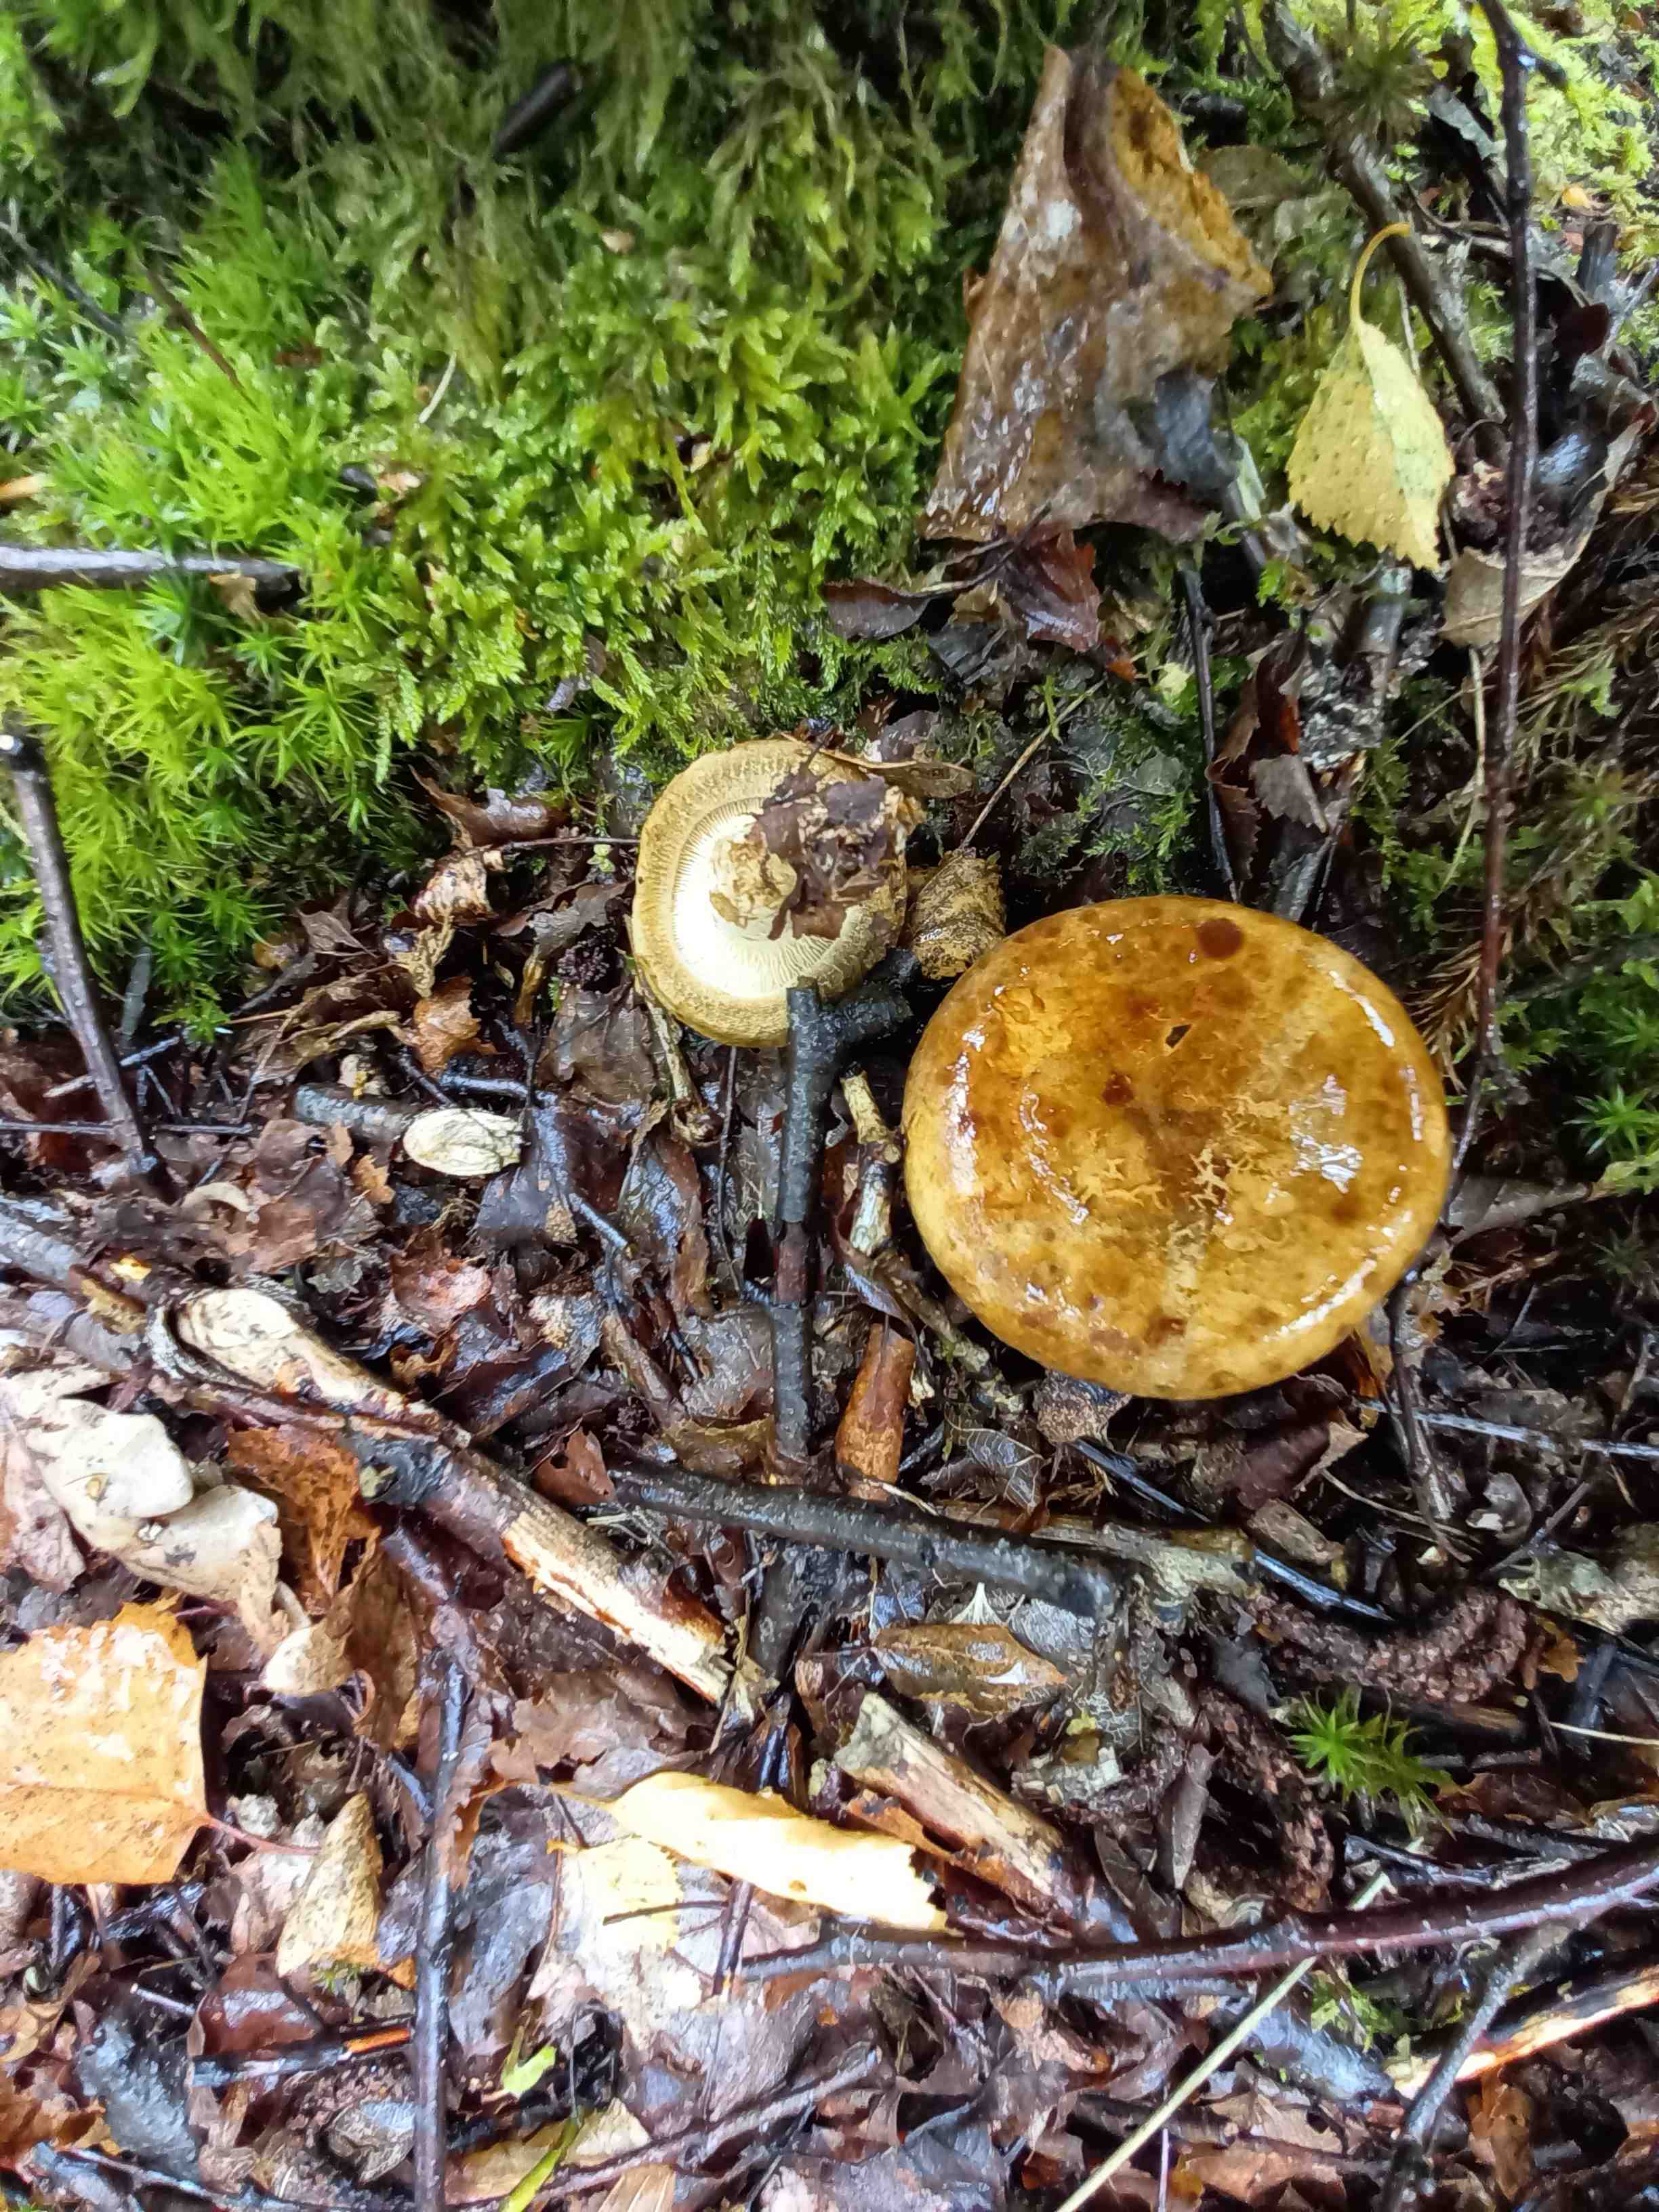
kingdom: Fungi
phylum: Basidiomycota
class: Agaricomycetes
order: Boletales
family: Paxillaceae
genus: Paxillus
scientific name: Paxillus
